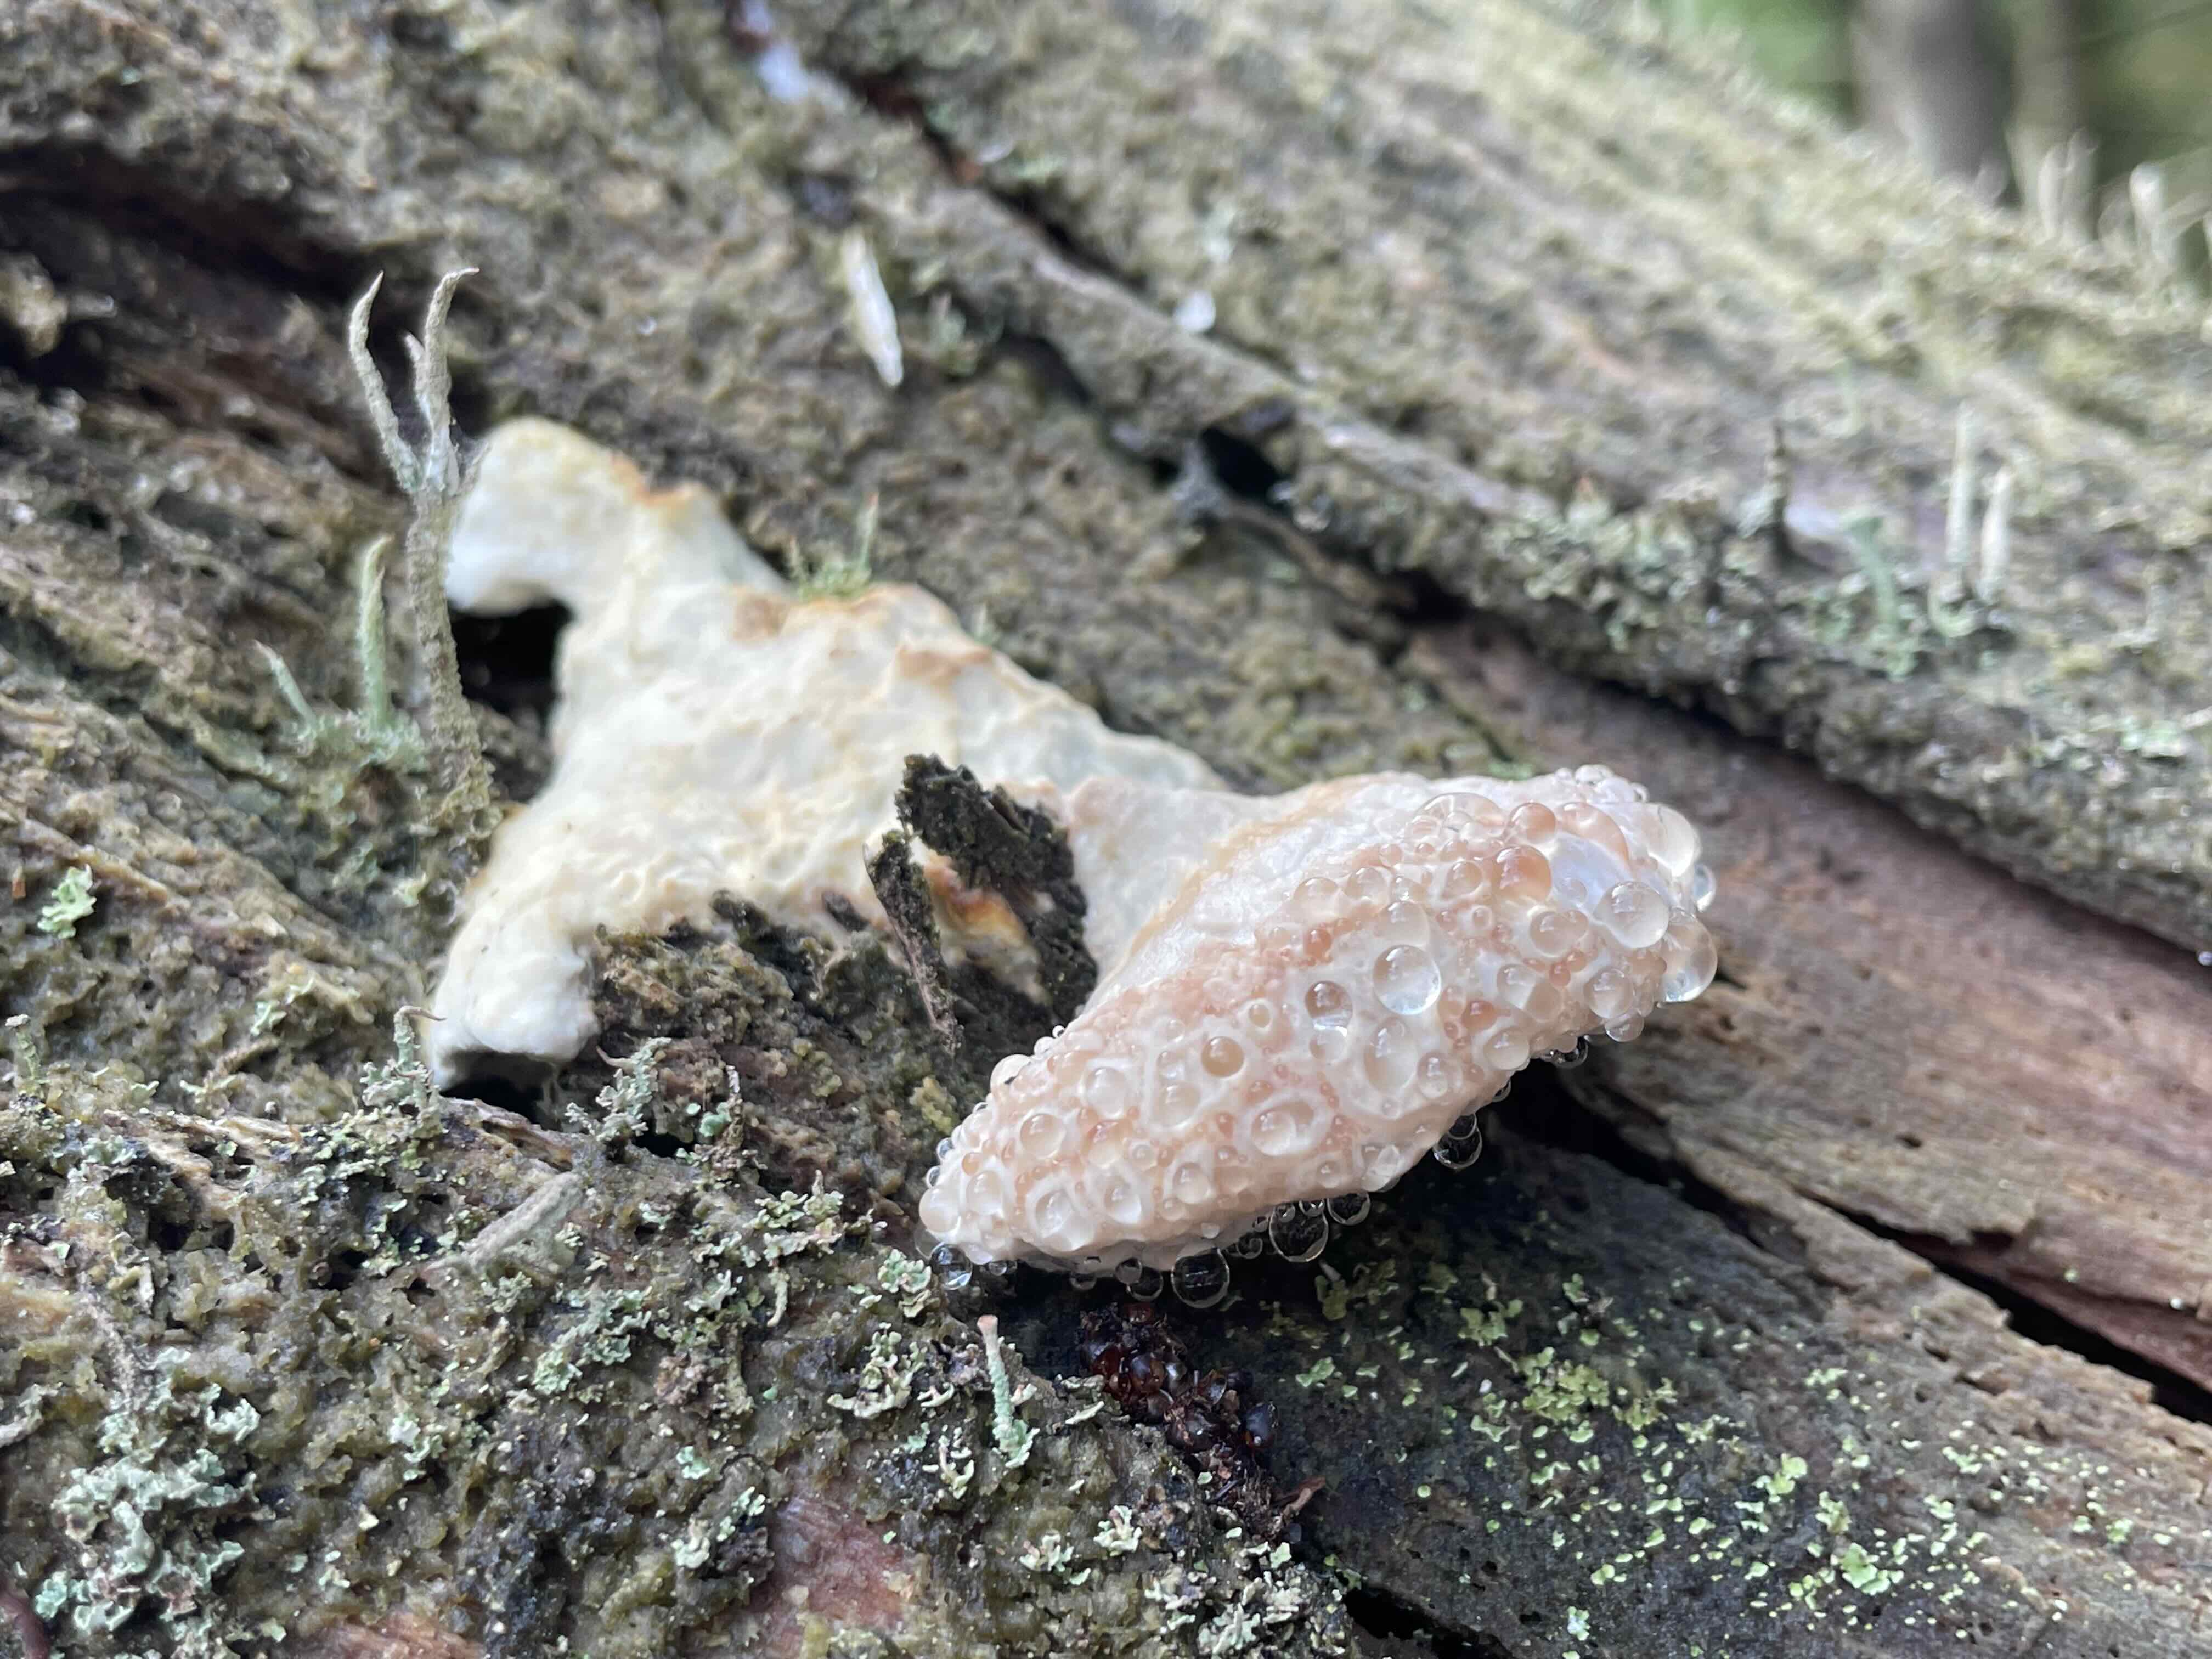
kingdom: Fungi
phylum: Basidiomycota
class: Agaricomycetes
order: Polyporales
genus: Calcipostia
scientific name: Calcipostia guttulata
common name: dråbe-kødporesvamp
